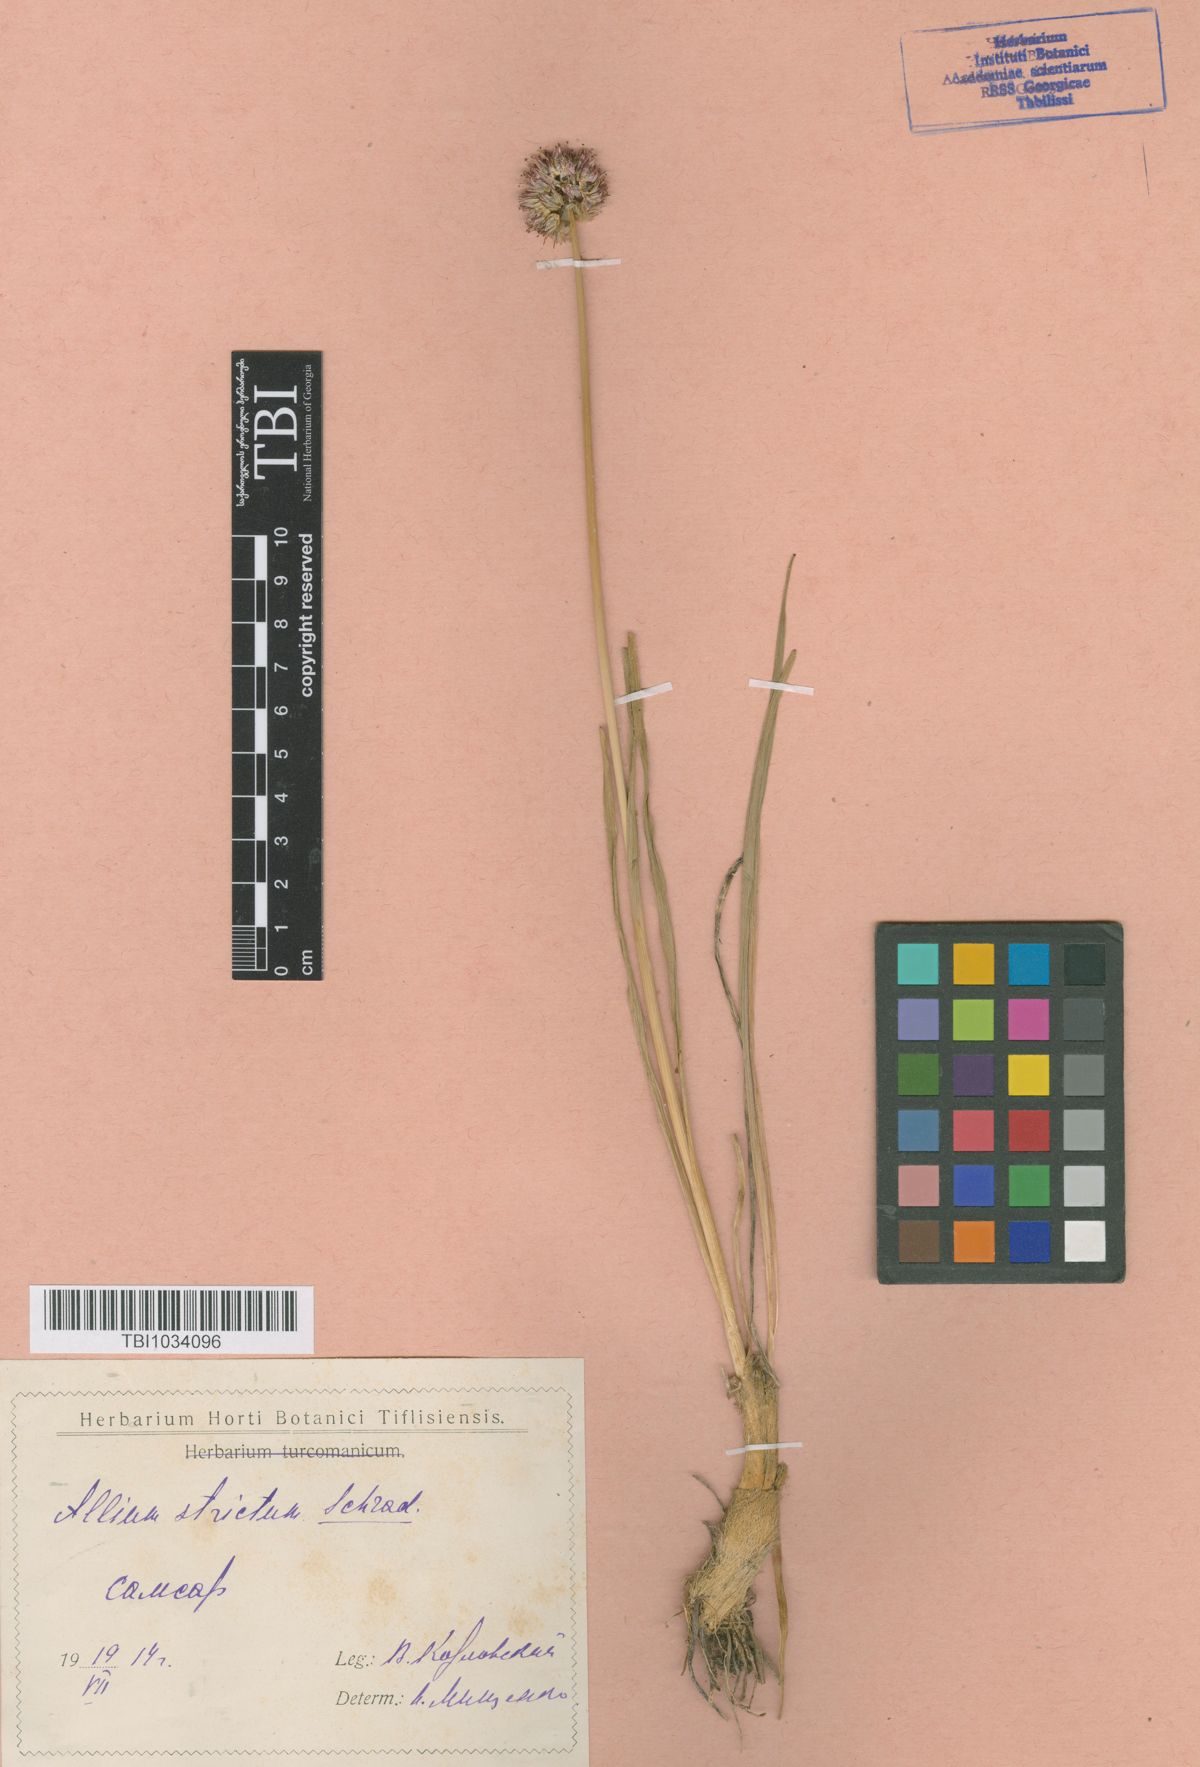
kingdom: Plantae
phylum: Tracheophyta
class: Liliopsida
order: Asparagales
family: Amaryllidaceae
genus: Allium
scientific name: Allium strictum
